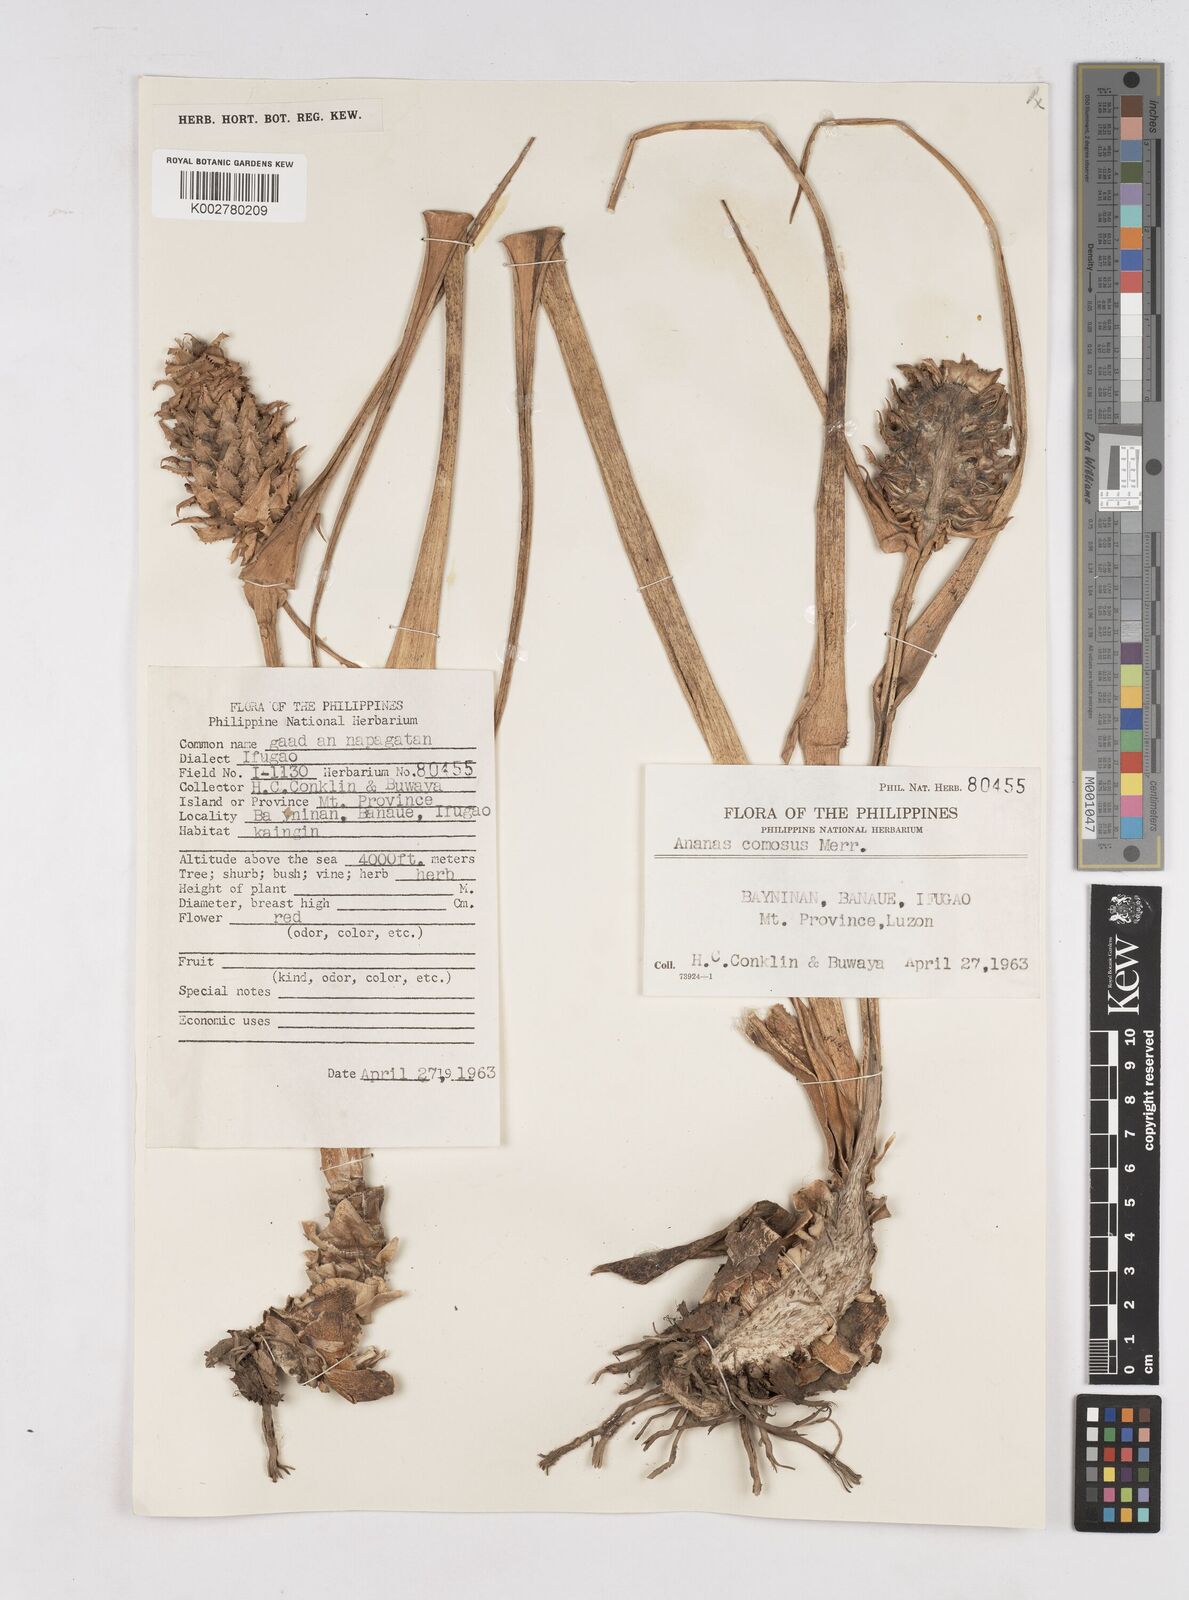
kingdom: Plantae
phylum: Tracheophyta
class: Liliopsida
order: Poales
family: Bromeliaceae
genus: Ananas
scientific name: Ananas comosus
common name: Pineapple
